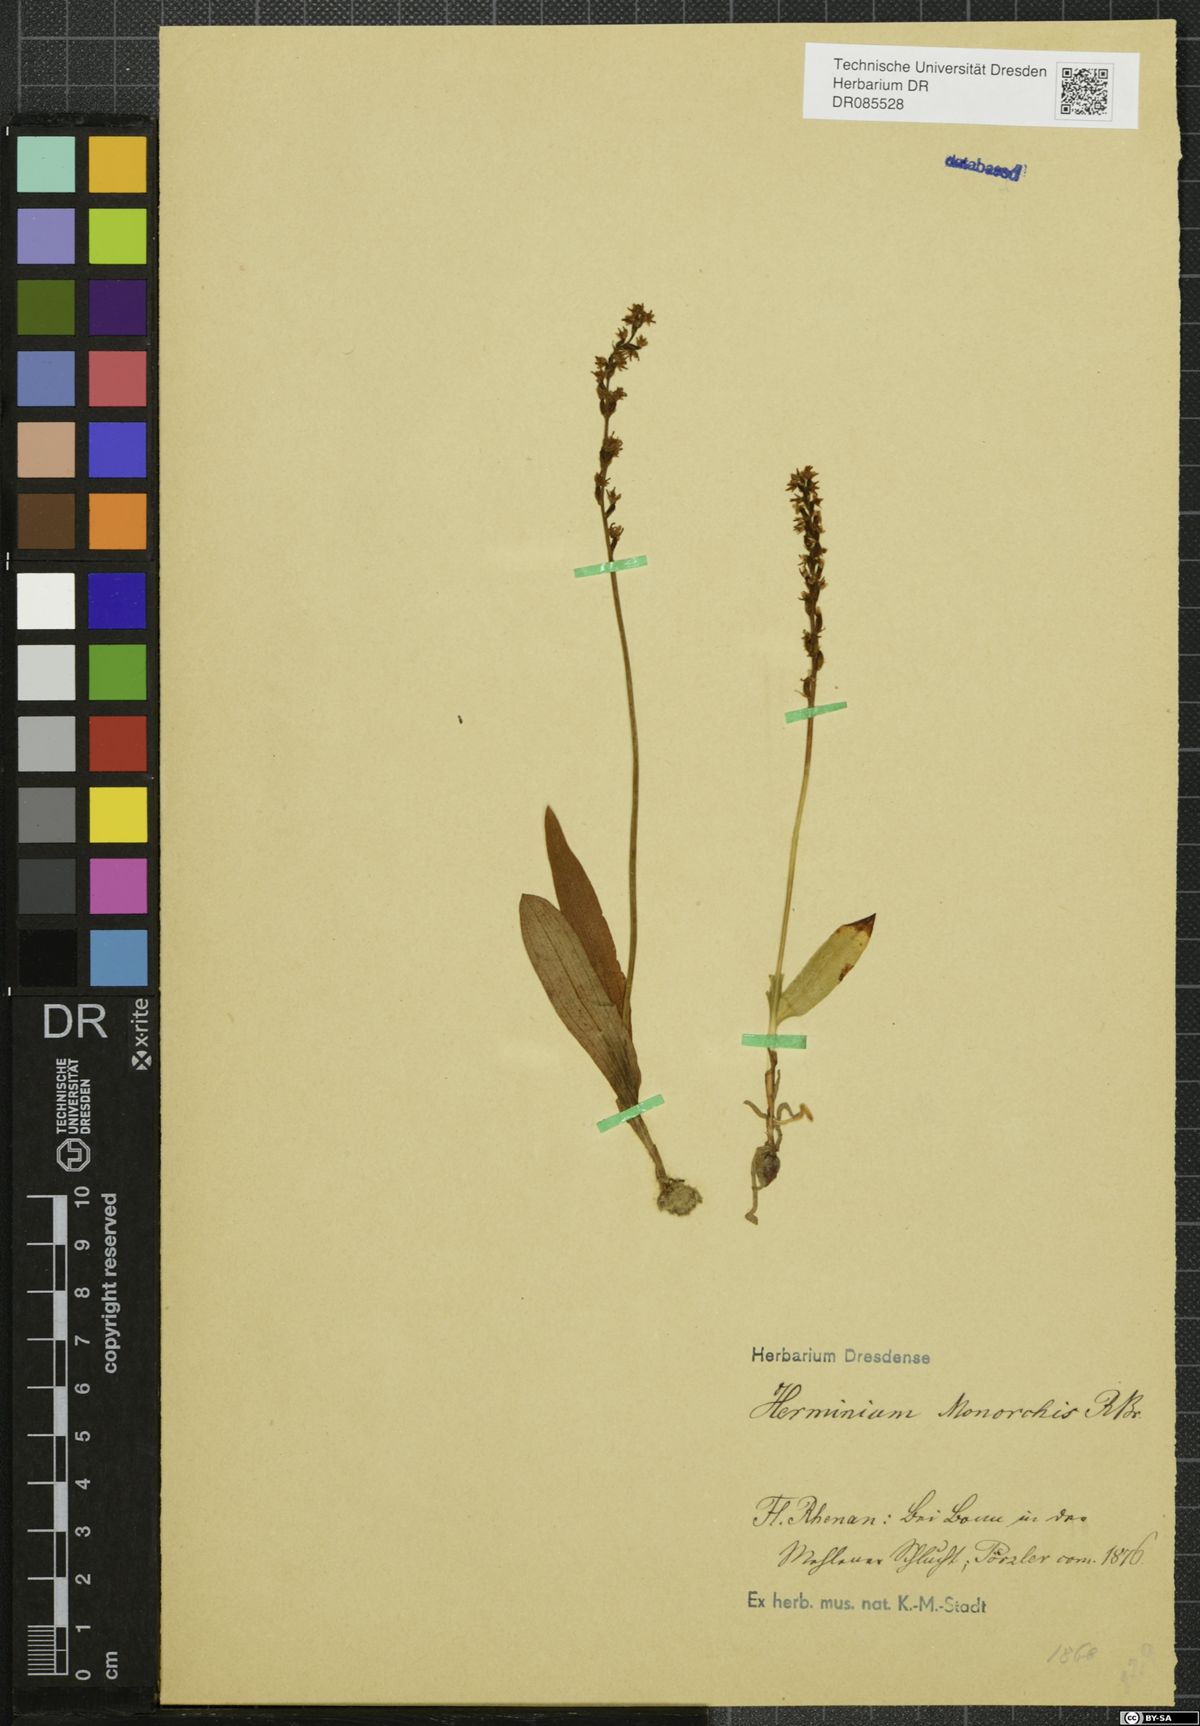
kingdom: Plantae
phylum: Tracheophyta
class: Liliopsida
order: Asparagales
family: Orchidaceae
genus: Herminium
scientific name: Herminium monorchis
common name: Musk orchid
